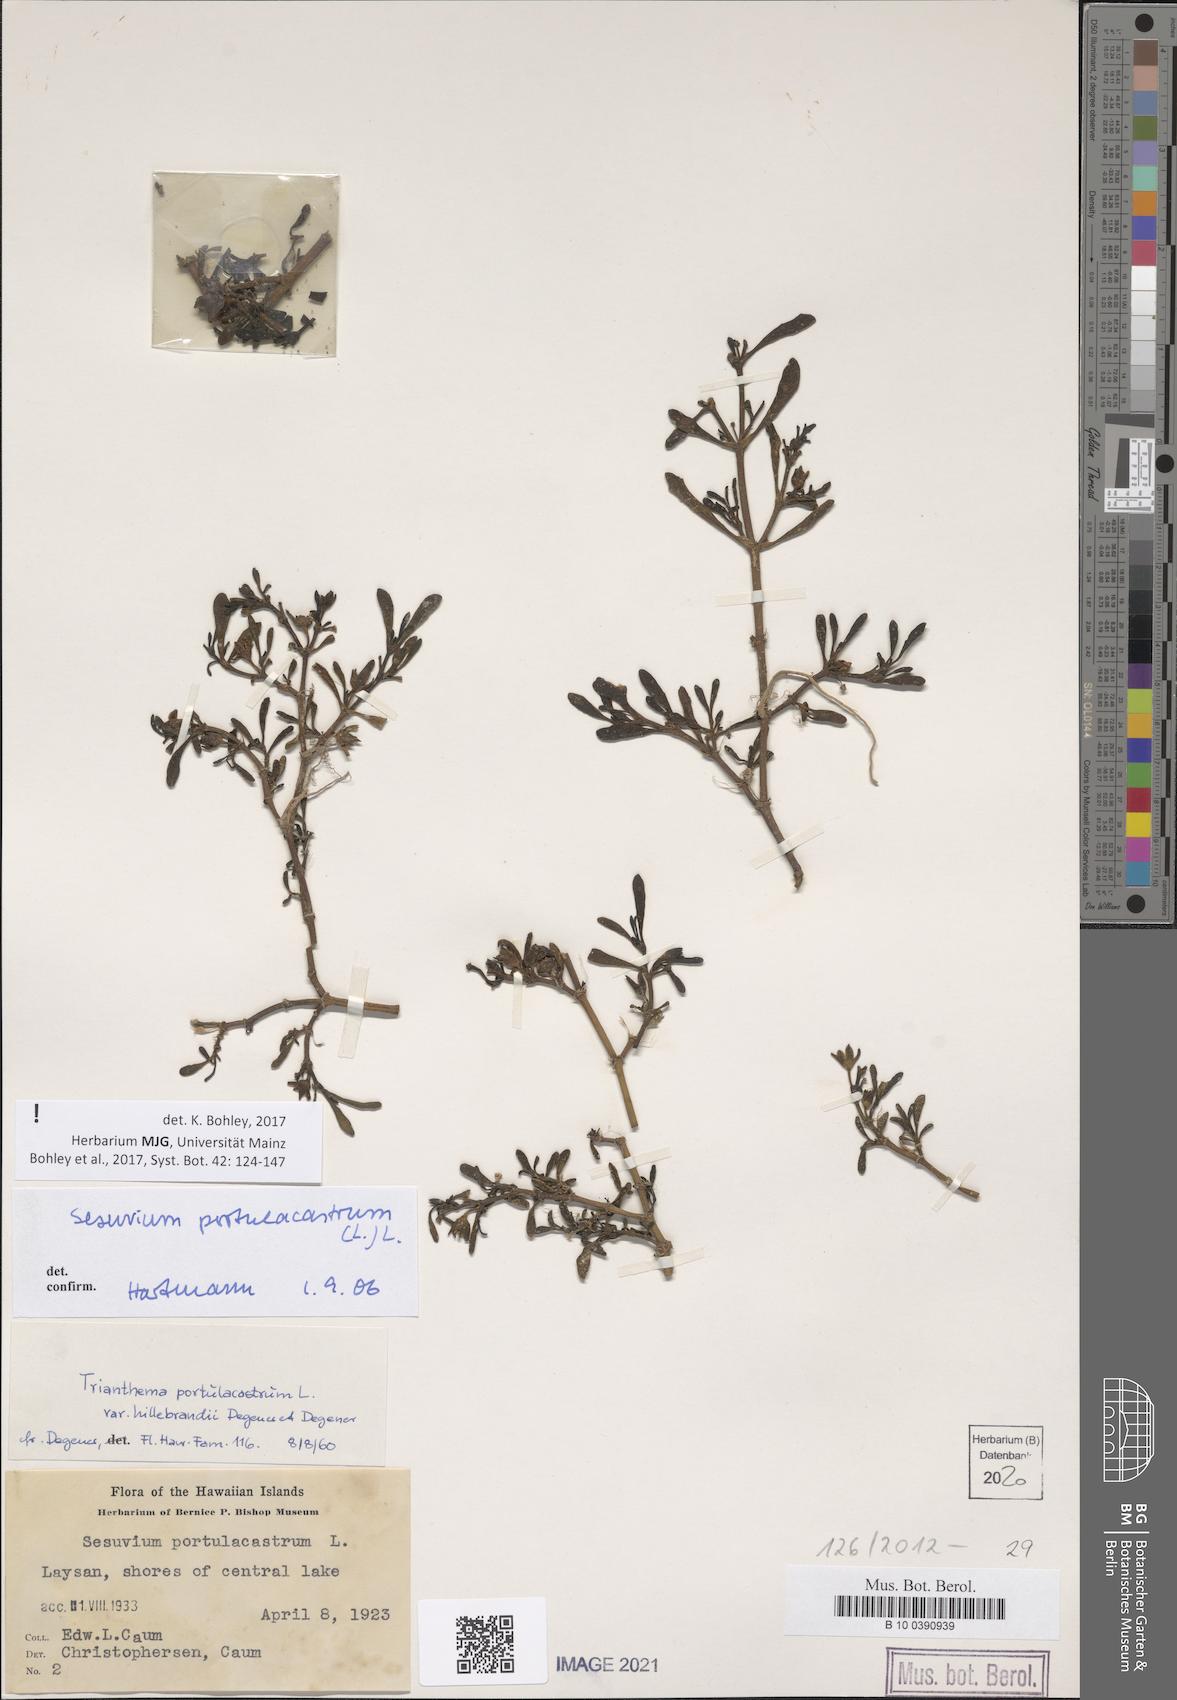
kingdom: Plantae
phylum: Tracheophyta
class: Magnoliopsida
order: Caryophyllales
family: Aizoaceae
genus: Sesuvium
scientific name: Sesuvium portulacastrum
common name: Sea-purslane
